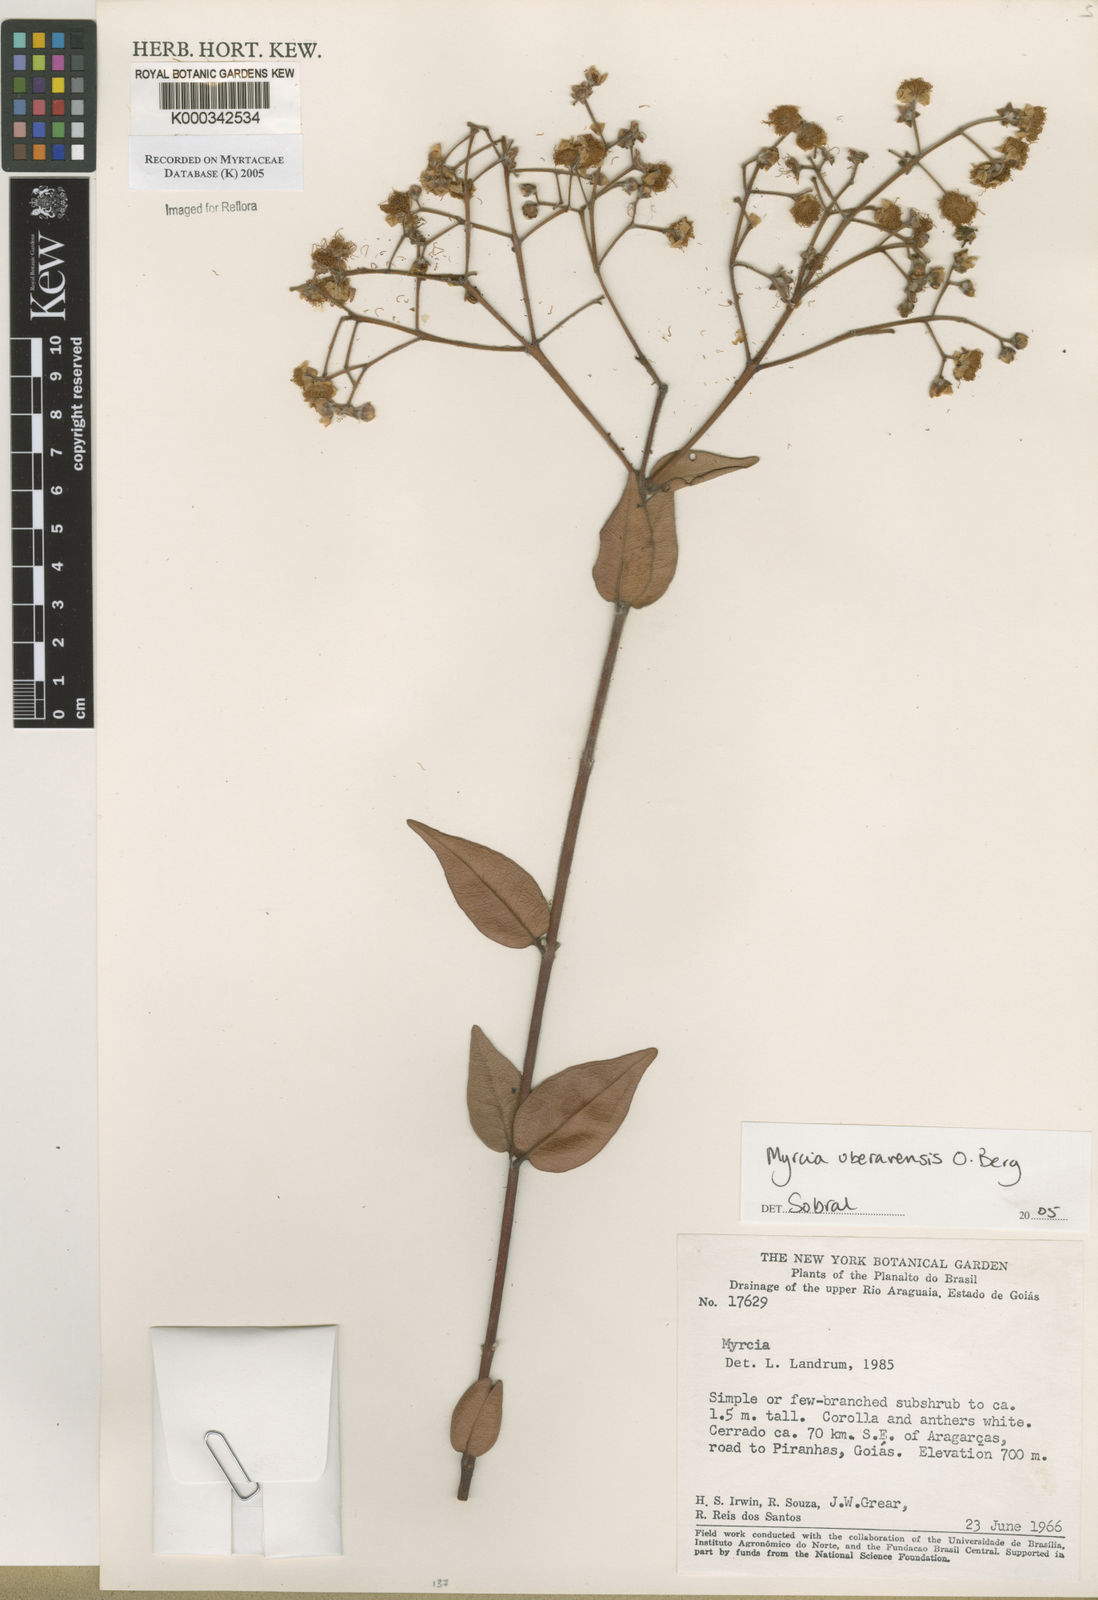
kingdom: Plantae
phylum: Tracheophyta
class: Magnoliopsida
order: Myrtales
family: Myrtaceae
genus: Myrcia
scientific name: Myrcia uberavensis
